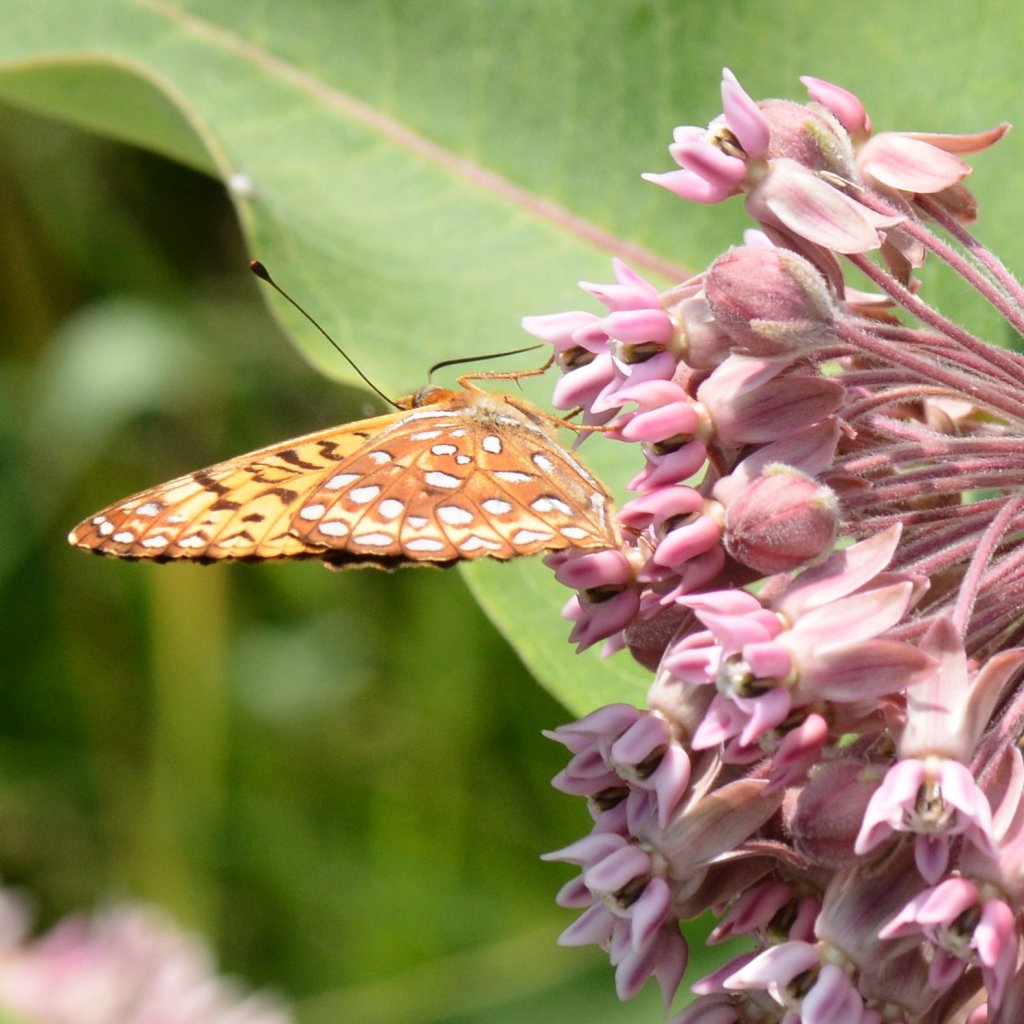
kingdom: Animalia
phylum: Arthropoda
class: Insecta
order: Lepidoptera
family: Nymphalidae
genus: Speyeria
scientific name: Speyeria atlantis
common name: Atlantis Fritillary
